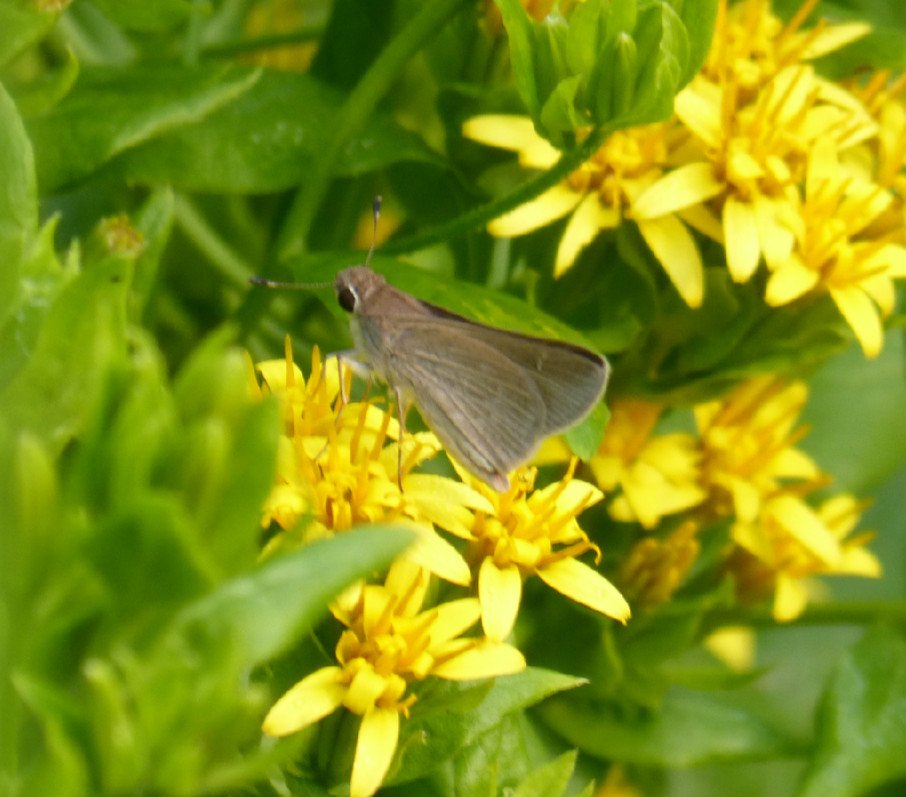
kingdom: Animalia
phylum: Arthropoda
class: Insecta
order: Lepidoptera
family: Hesperiidae
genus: Lerodea
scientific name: Lerodea eufala
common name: Eufala Skipper
